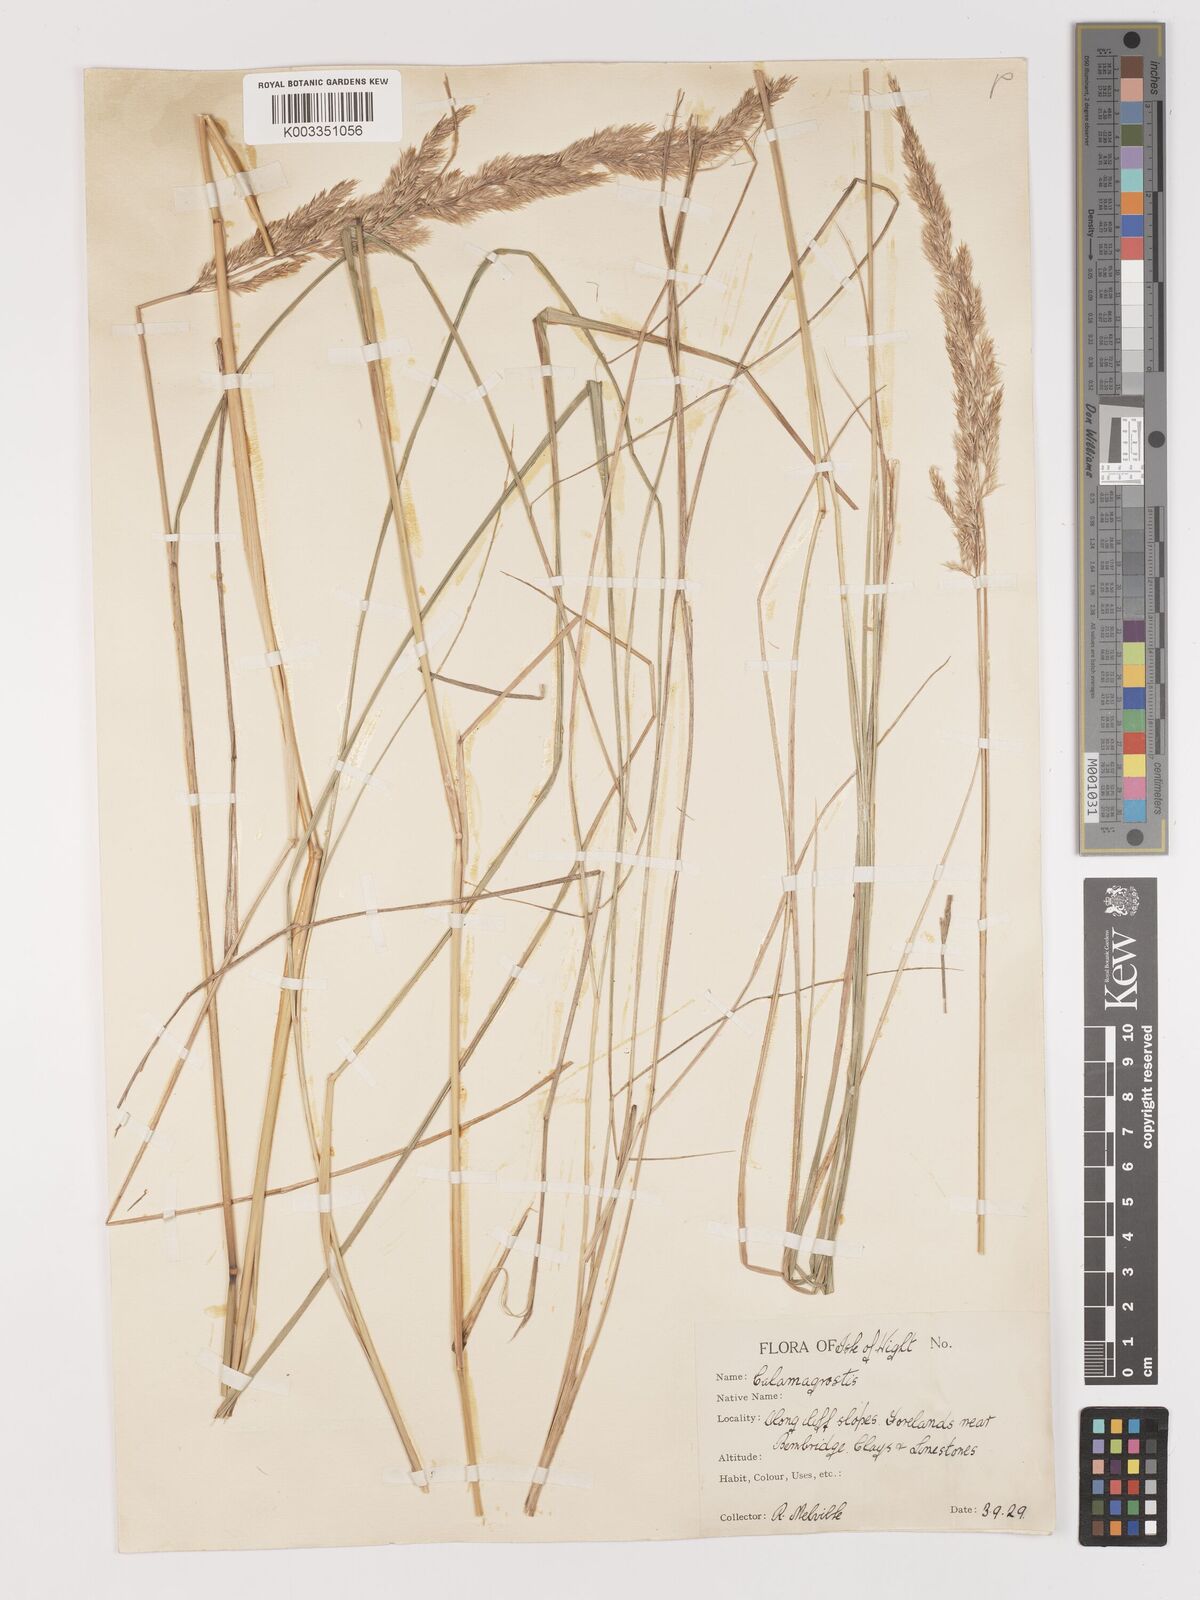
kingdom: Plantae
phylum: Tracheophyta
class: Liliopsida
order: Poales
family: Poaceae
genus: Calamagrostis
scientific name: Calamagrostis epigejos
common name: Wood small-reed
